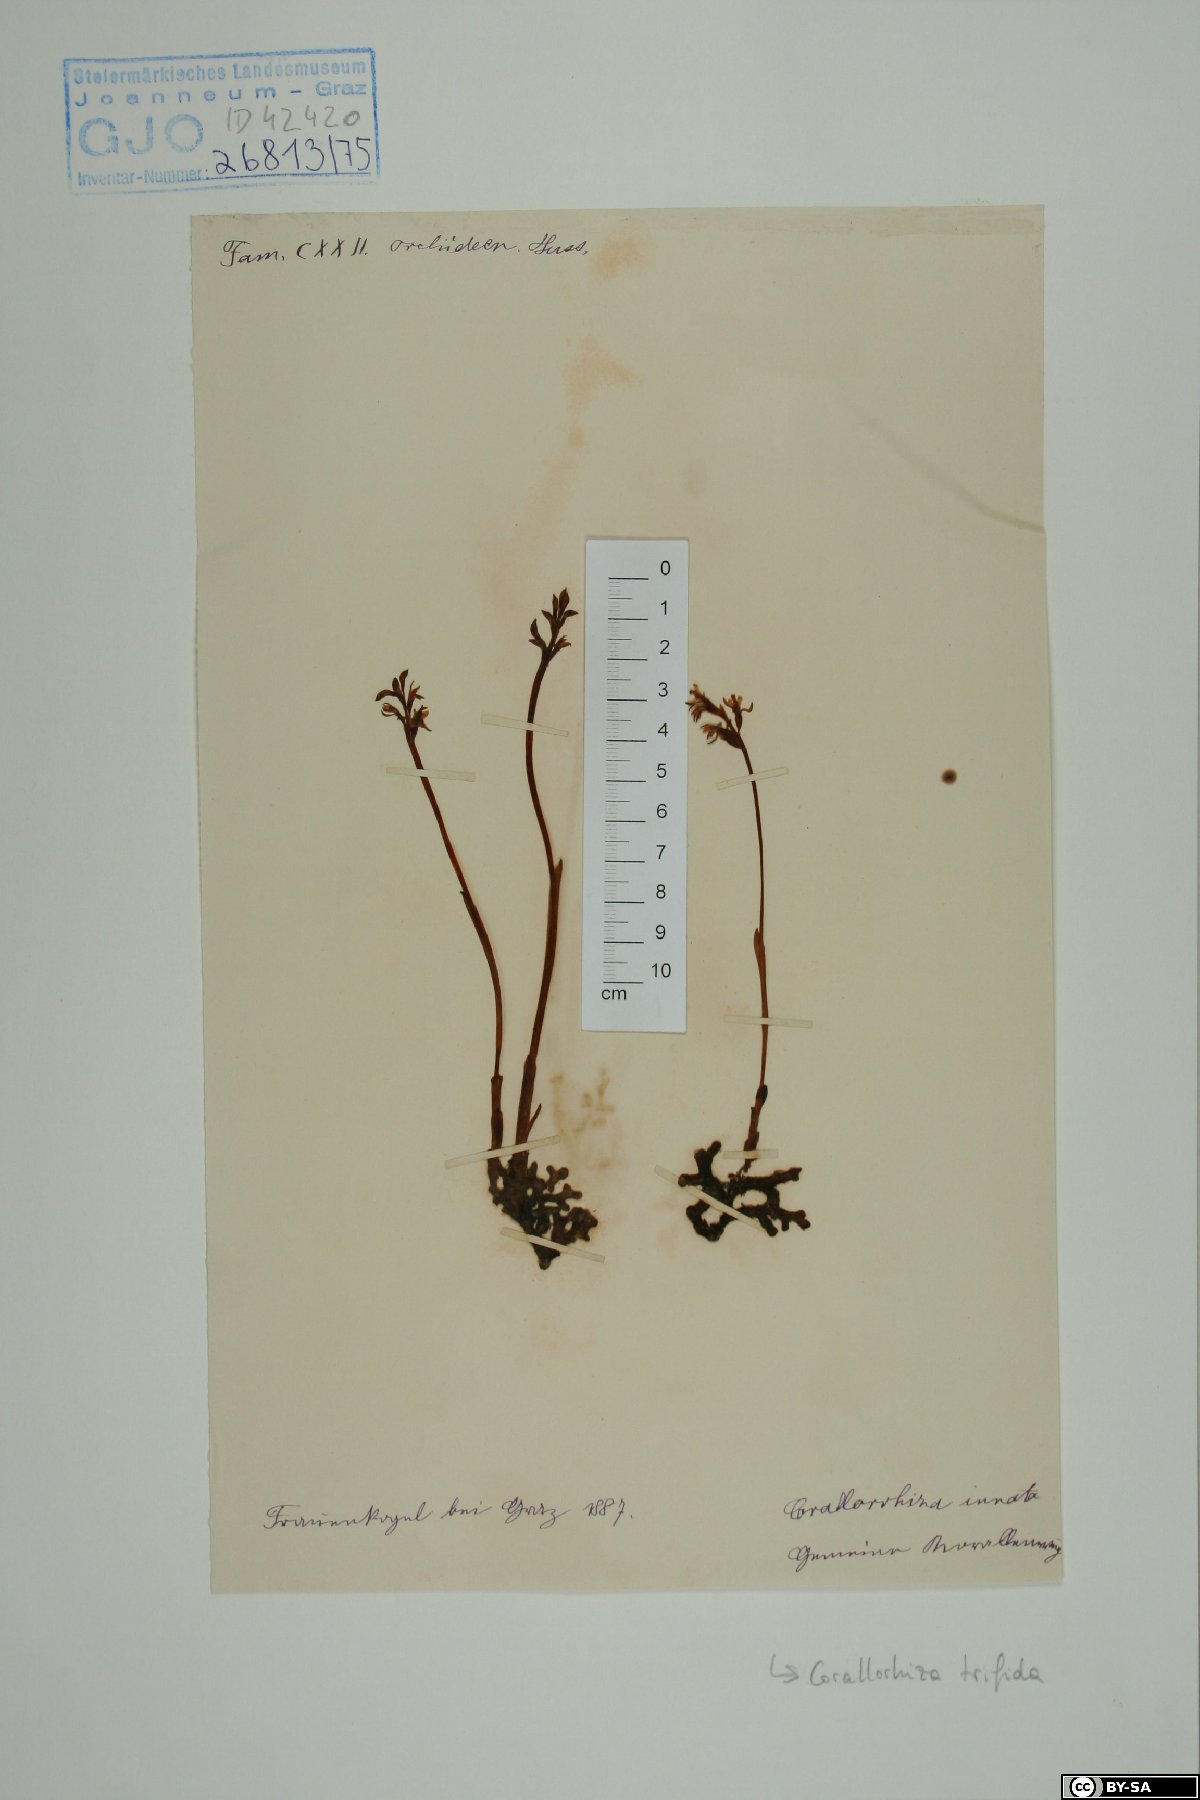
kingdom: Plantae
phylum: Tracheophyta
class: Liliopsida
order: Asparagales
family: Orchidaceae
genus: Corallorhiza
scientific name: Corallorhiza trifida
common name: Yellow coralroot
